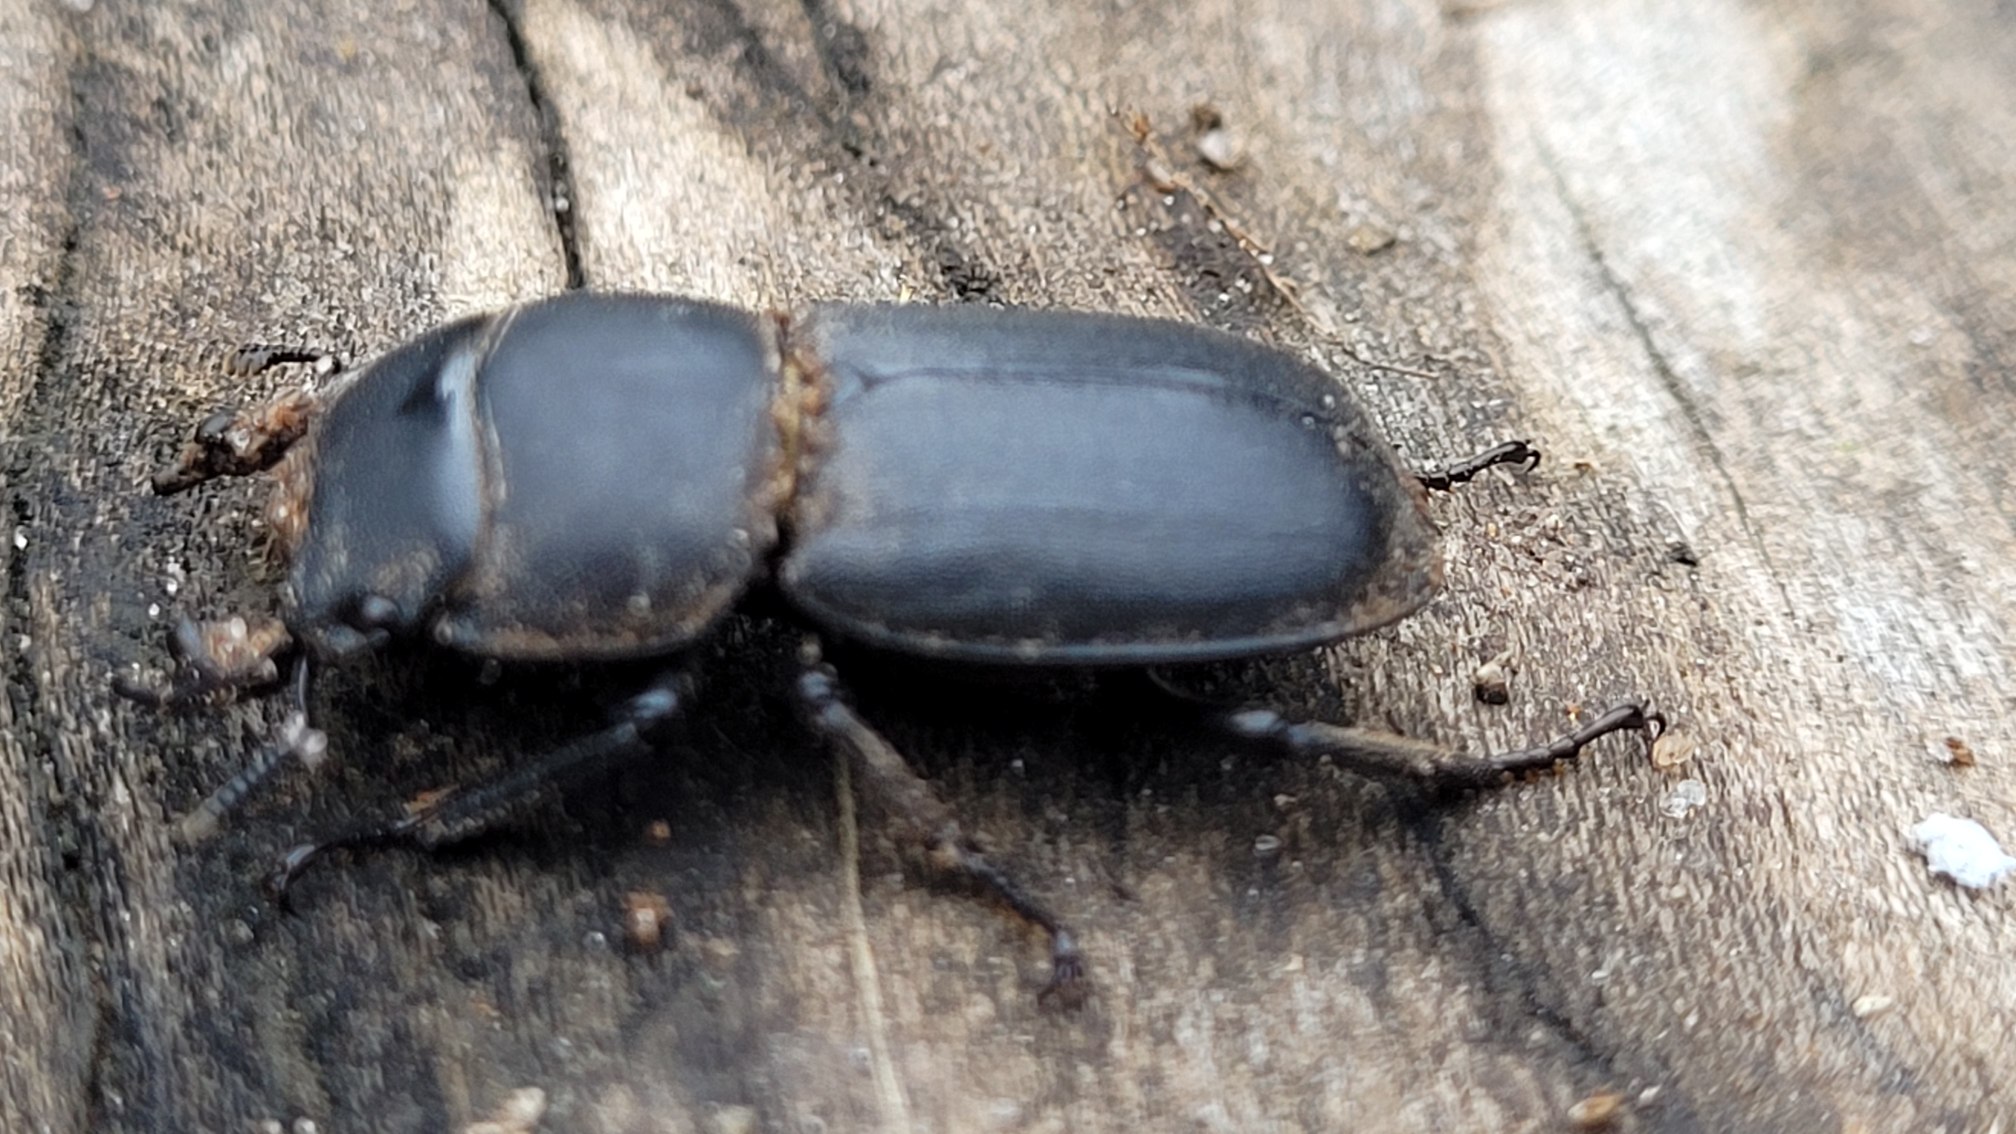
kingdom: Animalia
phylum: Arthropoda
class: Insecta
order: Coleoptera
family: Lucanidae
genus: Dorcus
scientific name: Dorcus parallelipipedus
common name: Bøghjort
